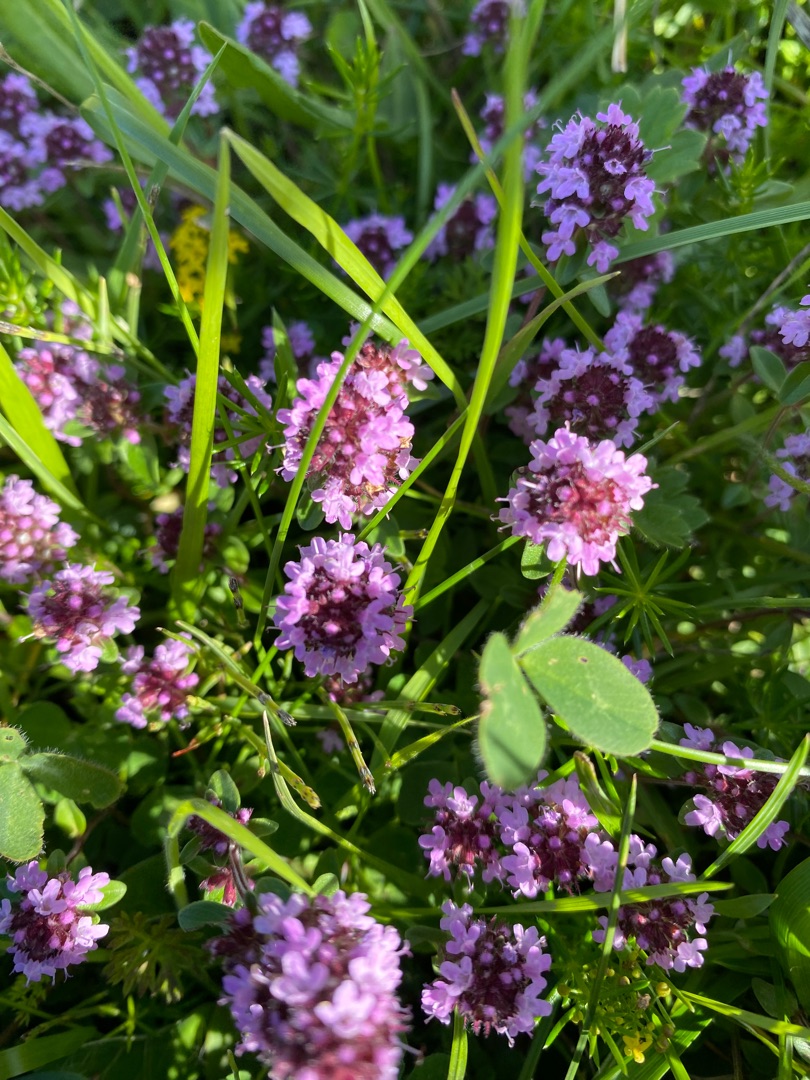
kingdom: Plantae
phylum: Tracheophyta
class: Magnoliopsida
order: Lamiales
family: Lamiaceae
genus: Thymus
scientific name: Thymus pulegioides
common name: Bredbladet timian
